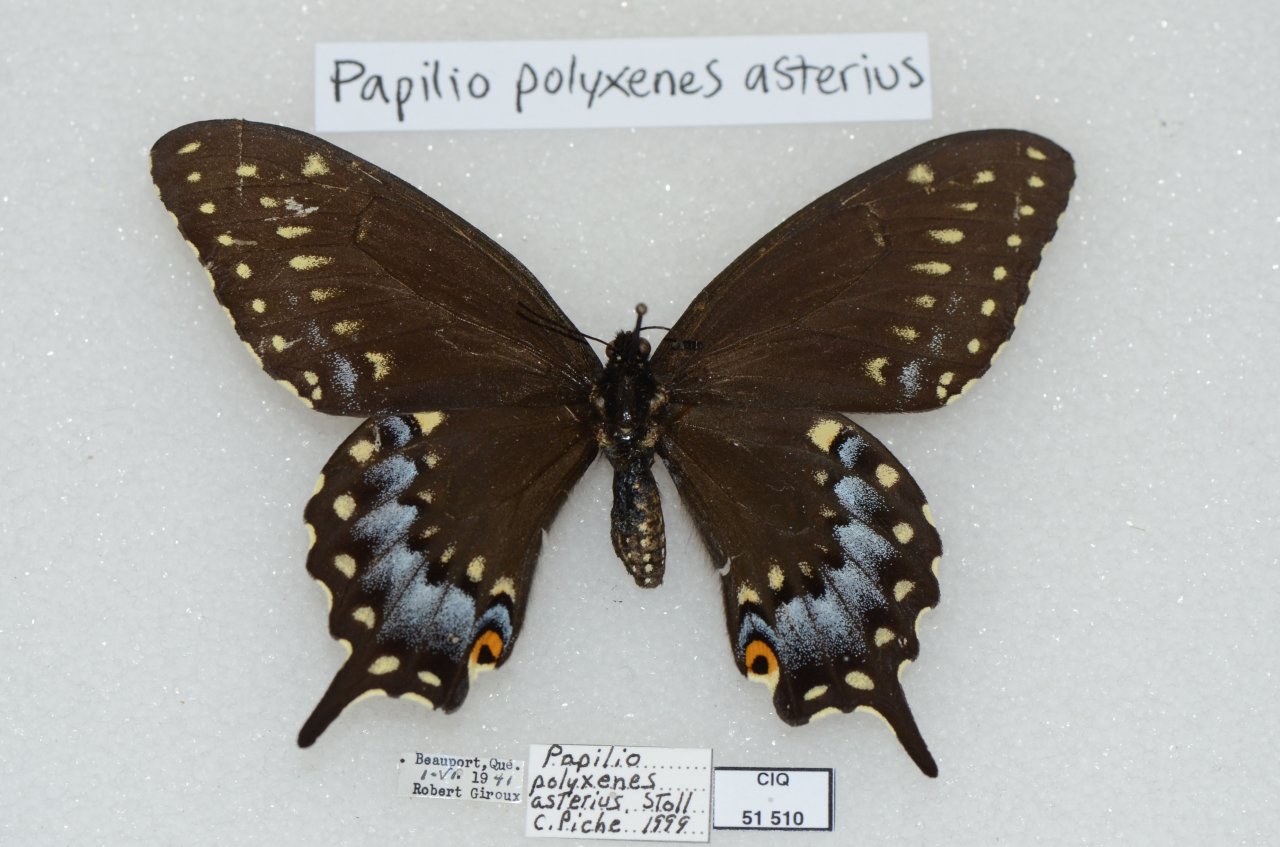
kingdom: Animalia
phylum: Arthropoda
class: Insecta
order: Lepidoptera
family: Papilionidae
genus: Papilio
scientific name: Papilio polyxenes
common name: Black Swallowtail
